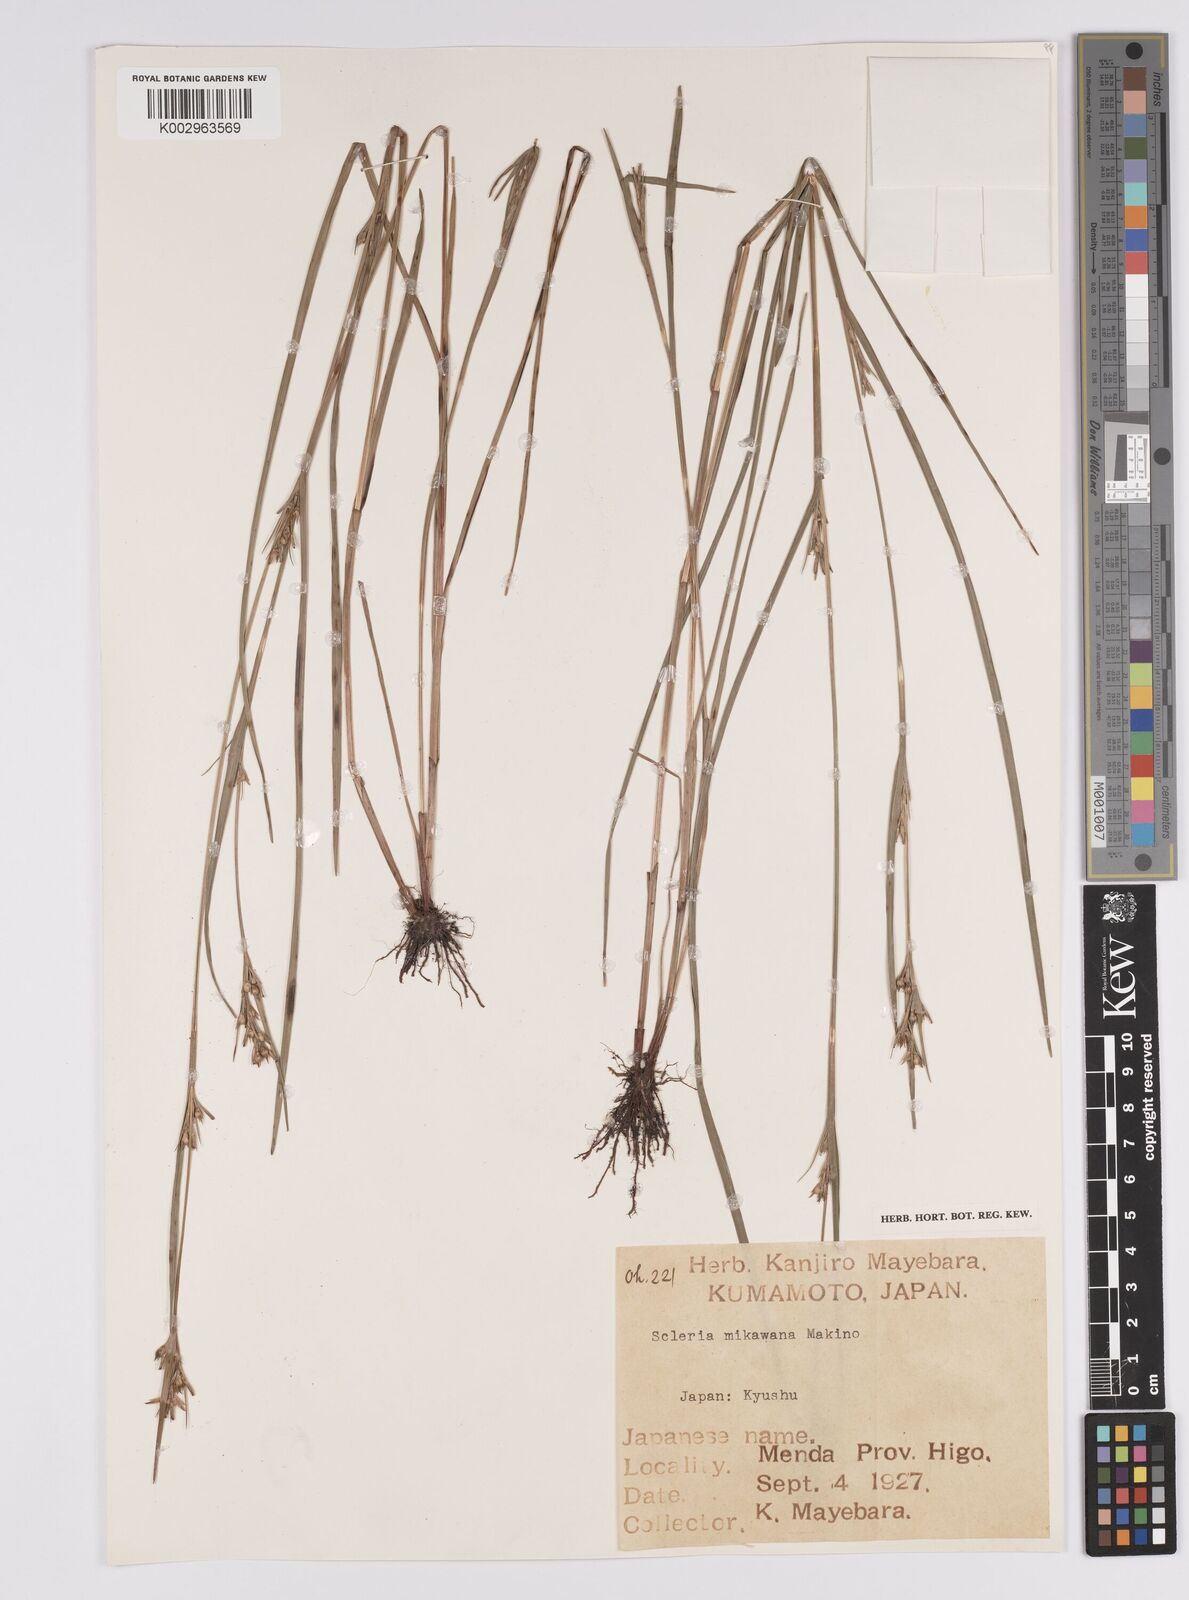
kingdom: Plantae
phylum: Tracheophyta
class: Liliopsida
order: Poales
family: Cyperaceae
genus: Scleria
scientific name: Scleria mikawana
